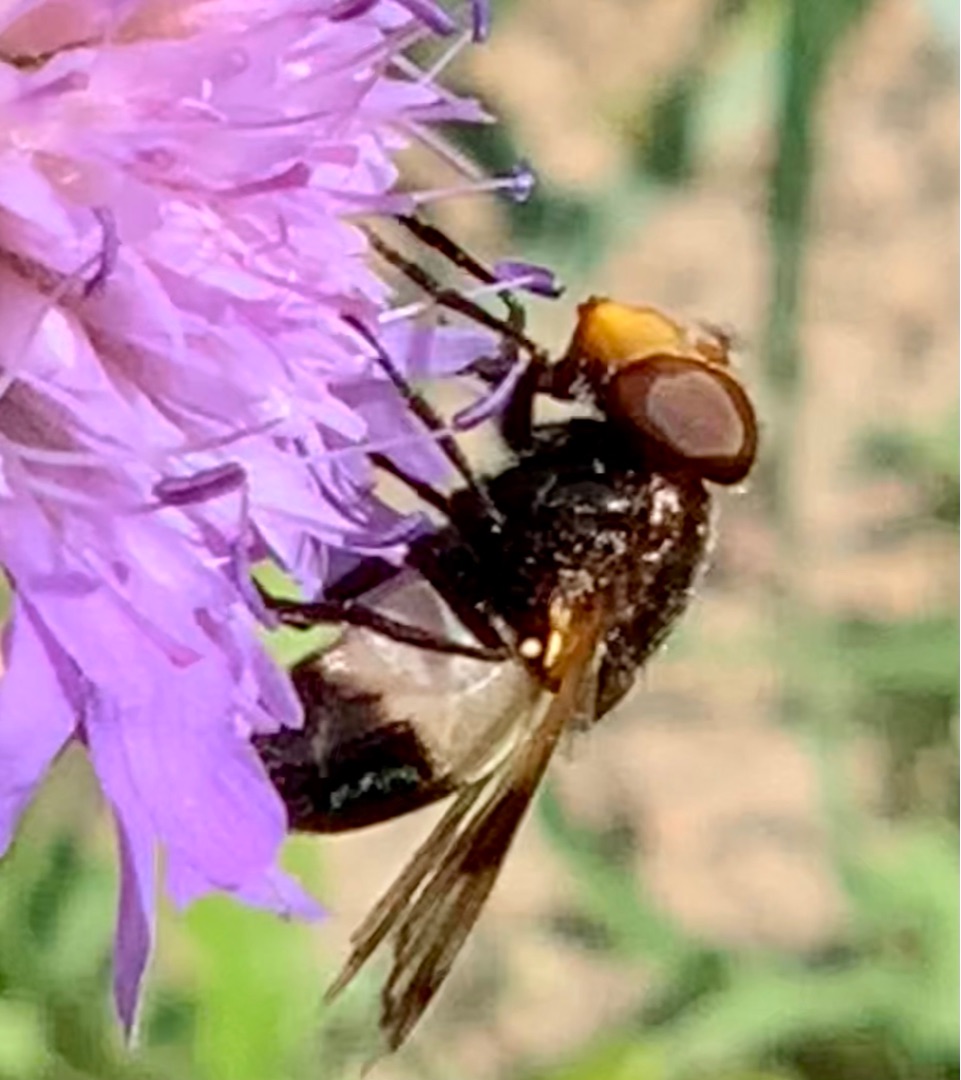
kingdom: Animalia
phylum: Arthropoda
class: Insecta
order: Diptera
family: Syrphidae
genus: Volucella
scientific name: Volucella pellucens
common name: Hvidbåndet humlesvirreflue
